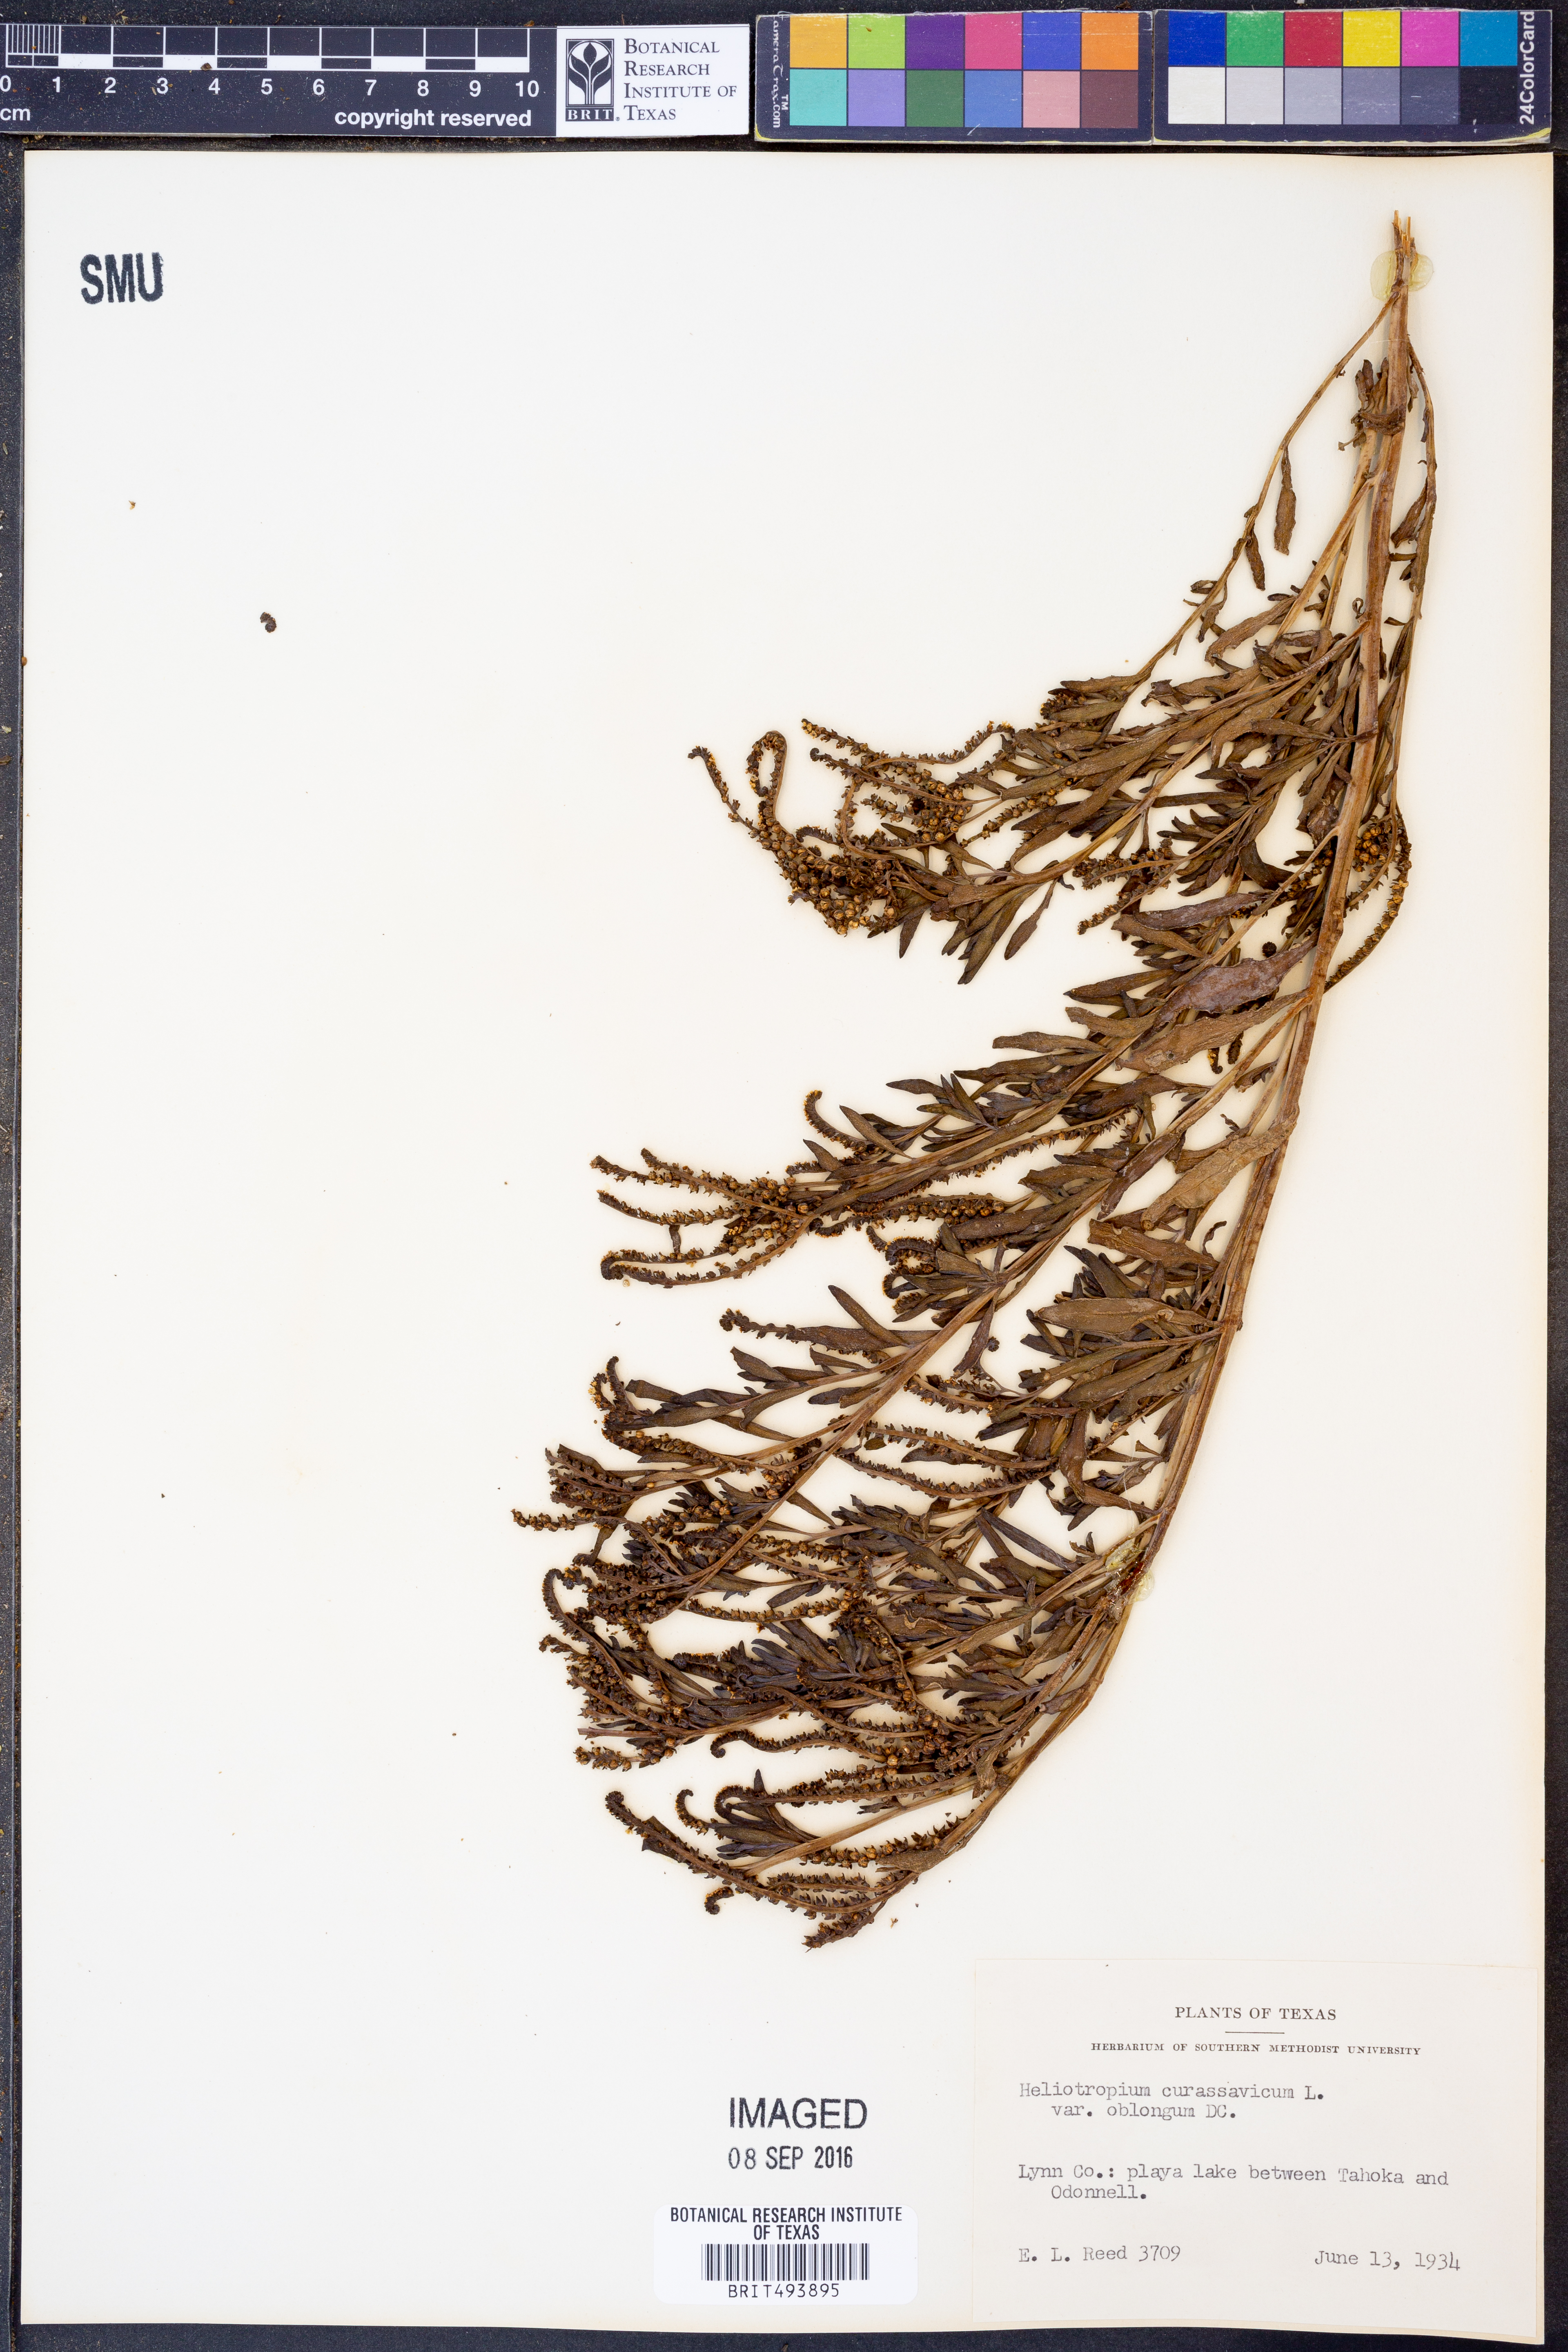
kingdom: Plantae
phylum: Tracheophyta
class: Magnoliopsida
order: Boraginales
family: Heliotropiaceae
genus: Heliotropium
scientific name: Heliotropium curassavicum
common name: Seaside heliotrope
